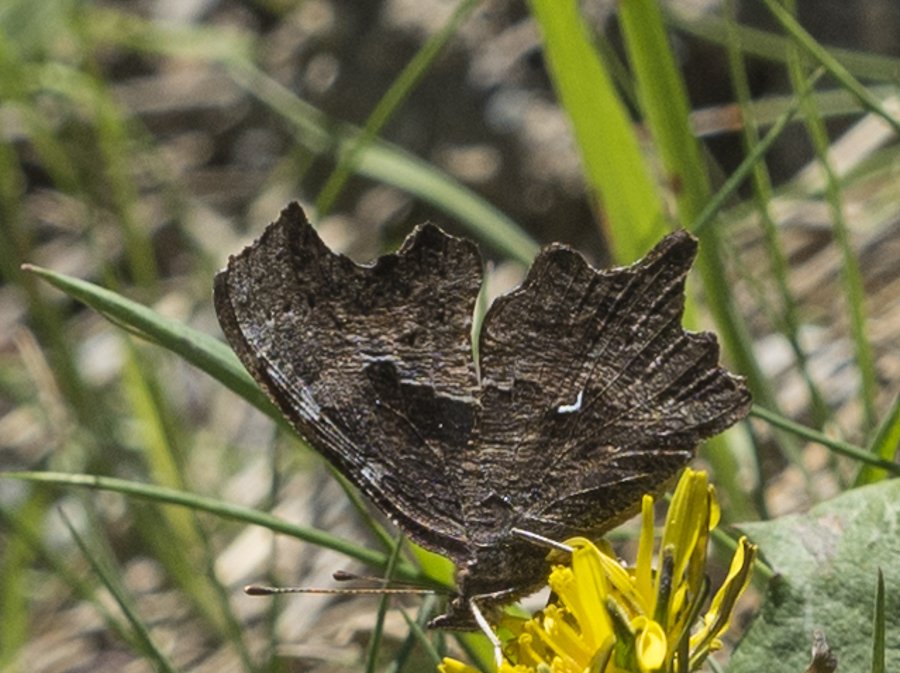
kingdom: Animalia
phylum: Arthropoda
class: Insecta
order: Lepidoptera
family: Nymphalidae
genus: Polygonia
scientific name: Polygonia faunus
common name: Green Comma
